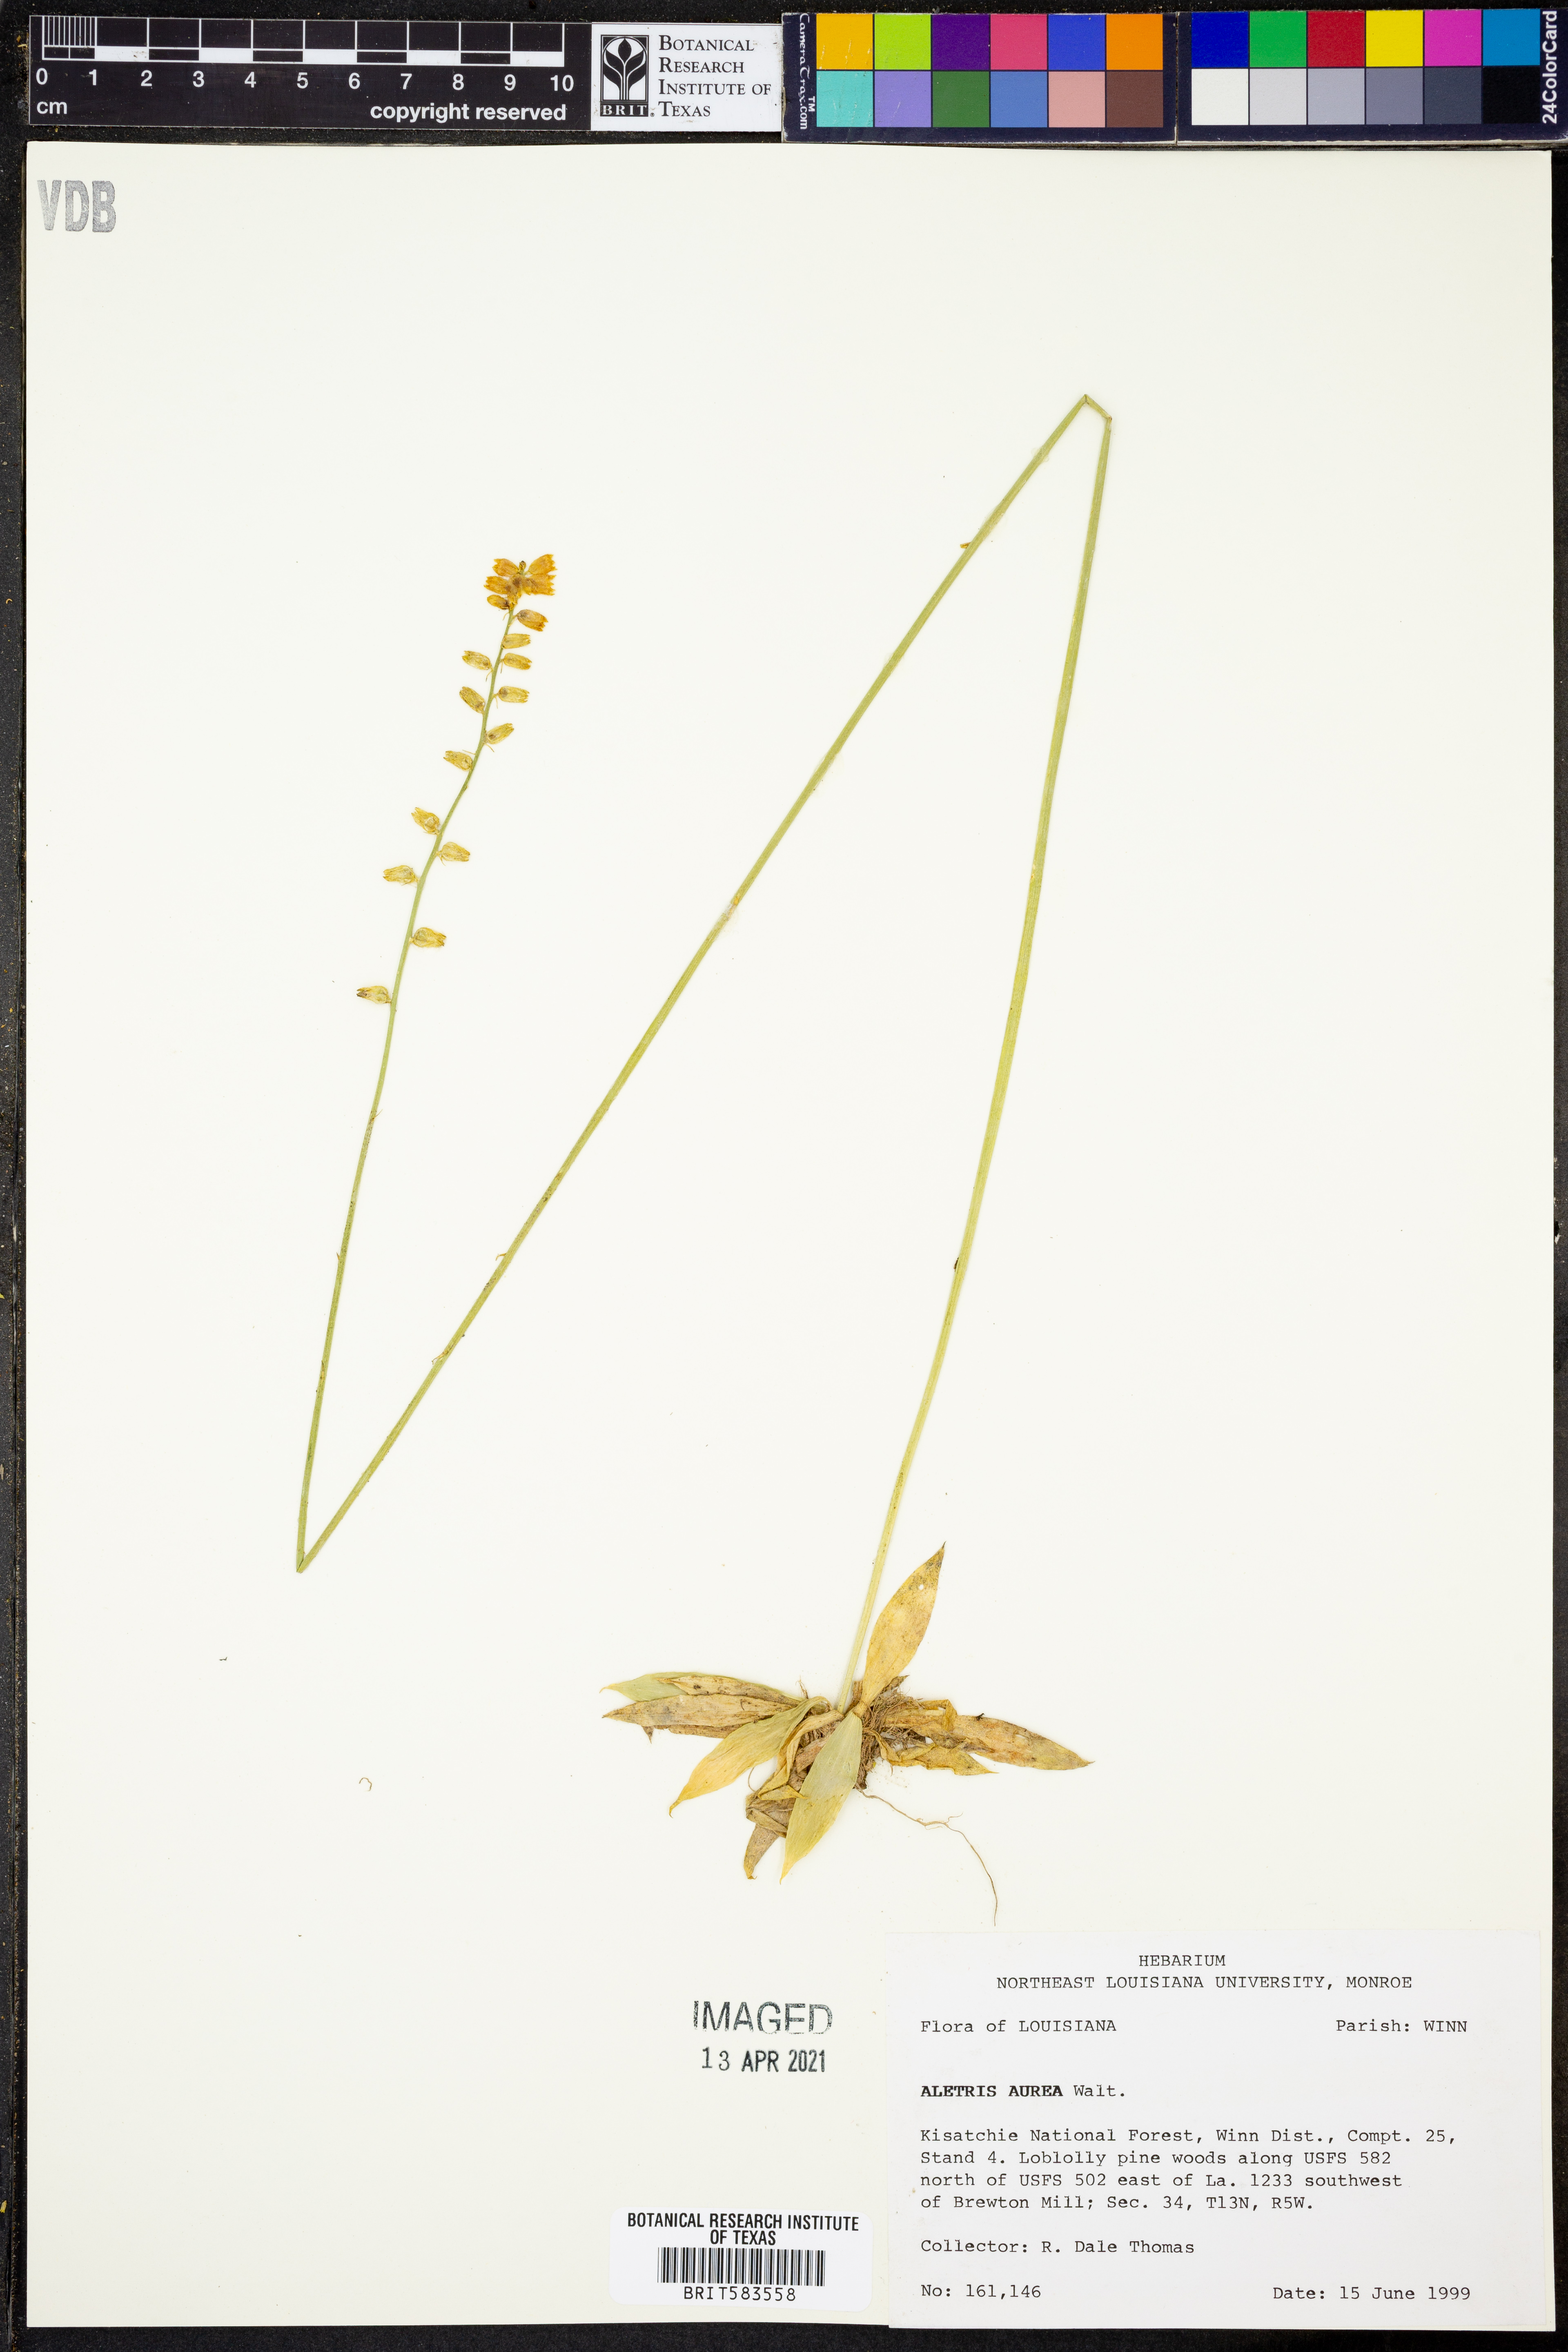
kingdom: Plantae
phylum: Tracheophyta
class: Liliopsida
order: Dioscoreales
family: Nartheciaceae
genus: Aletris
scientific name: Aletris aurea
